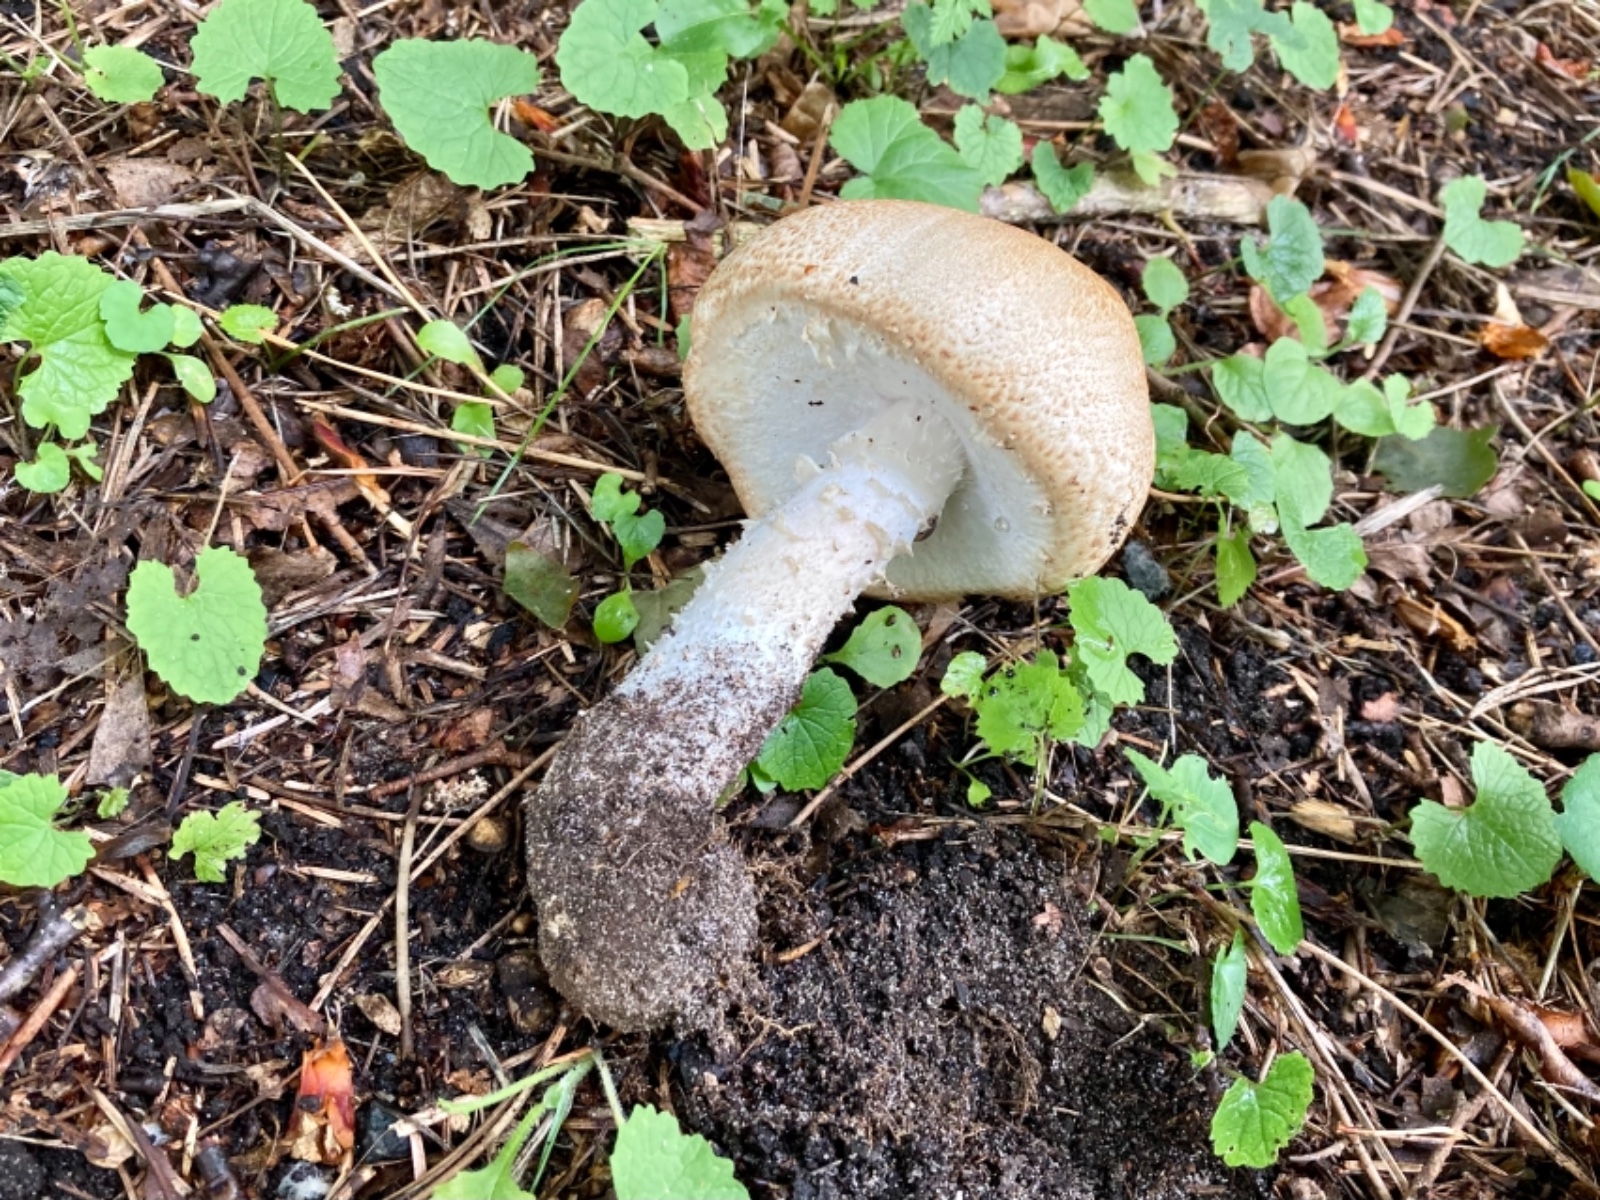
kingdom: Fungi
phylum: Basidiomycota
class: Agaricomycetes
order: Agaricales
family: Agaricaceae
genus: Agaricus
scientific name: Agaricus augustus
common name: prægtig champignon
